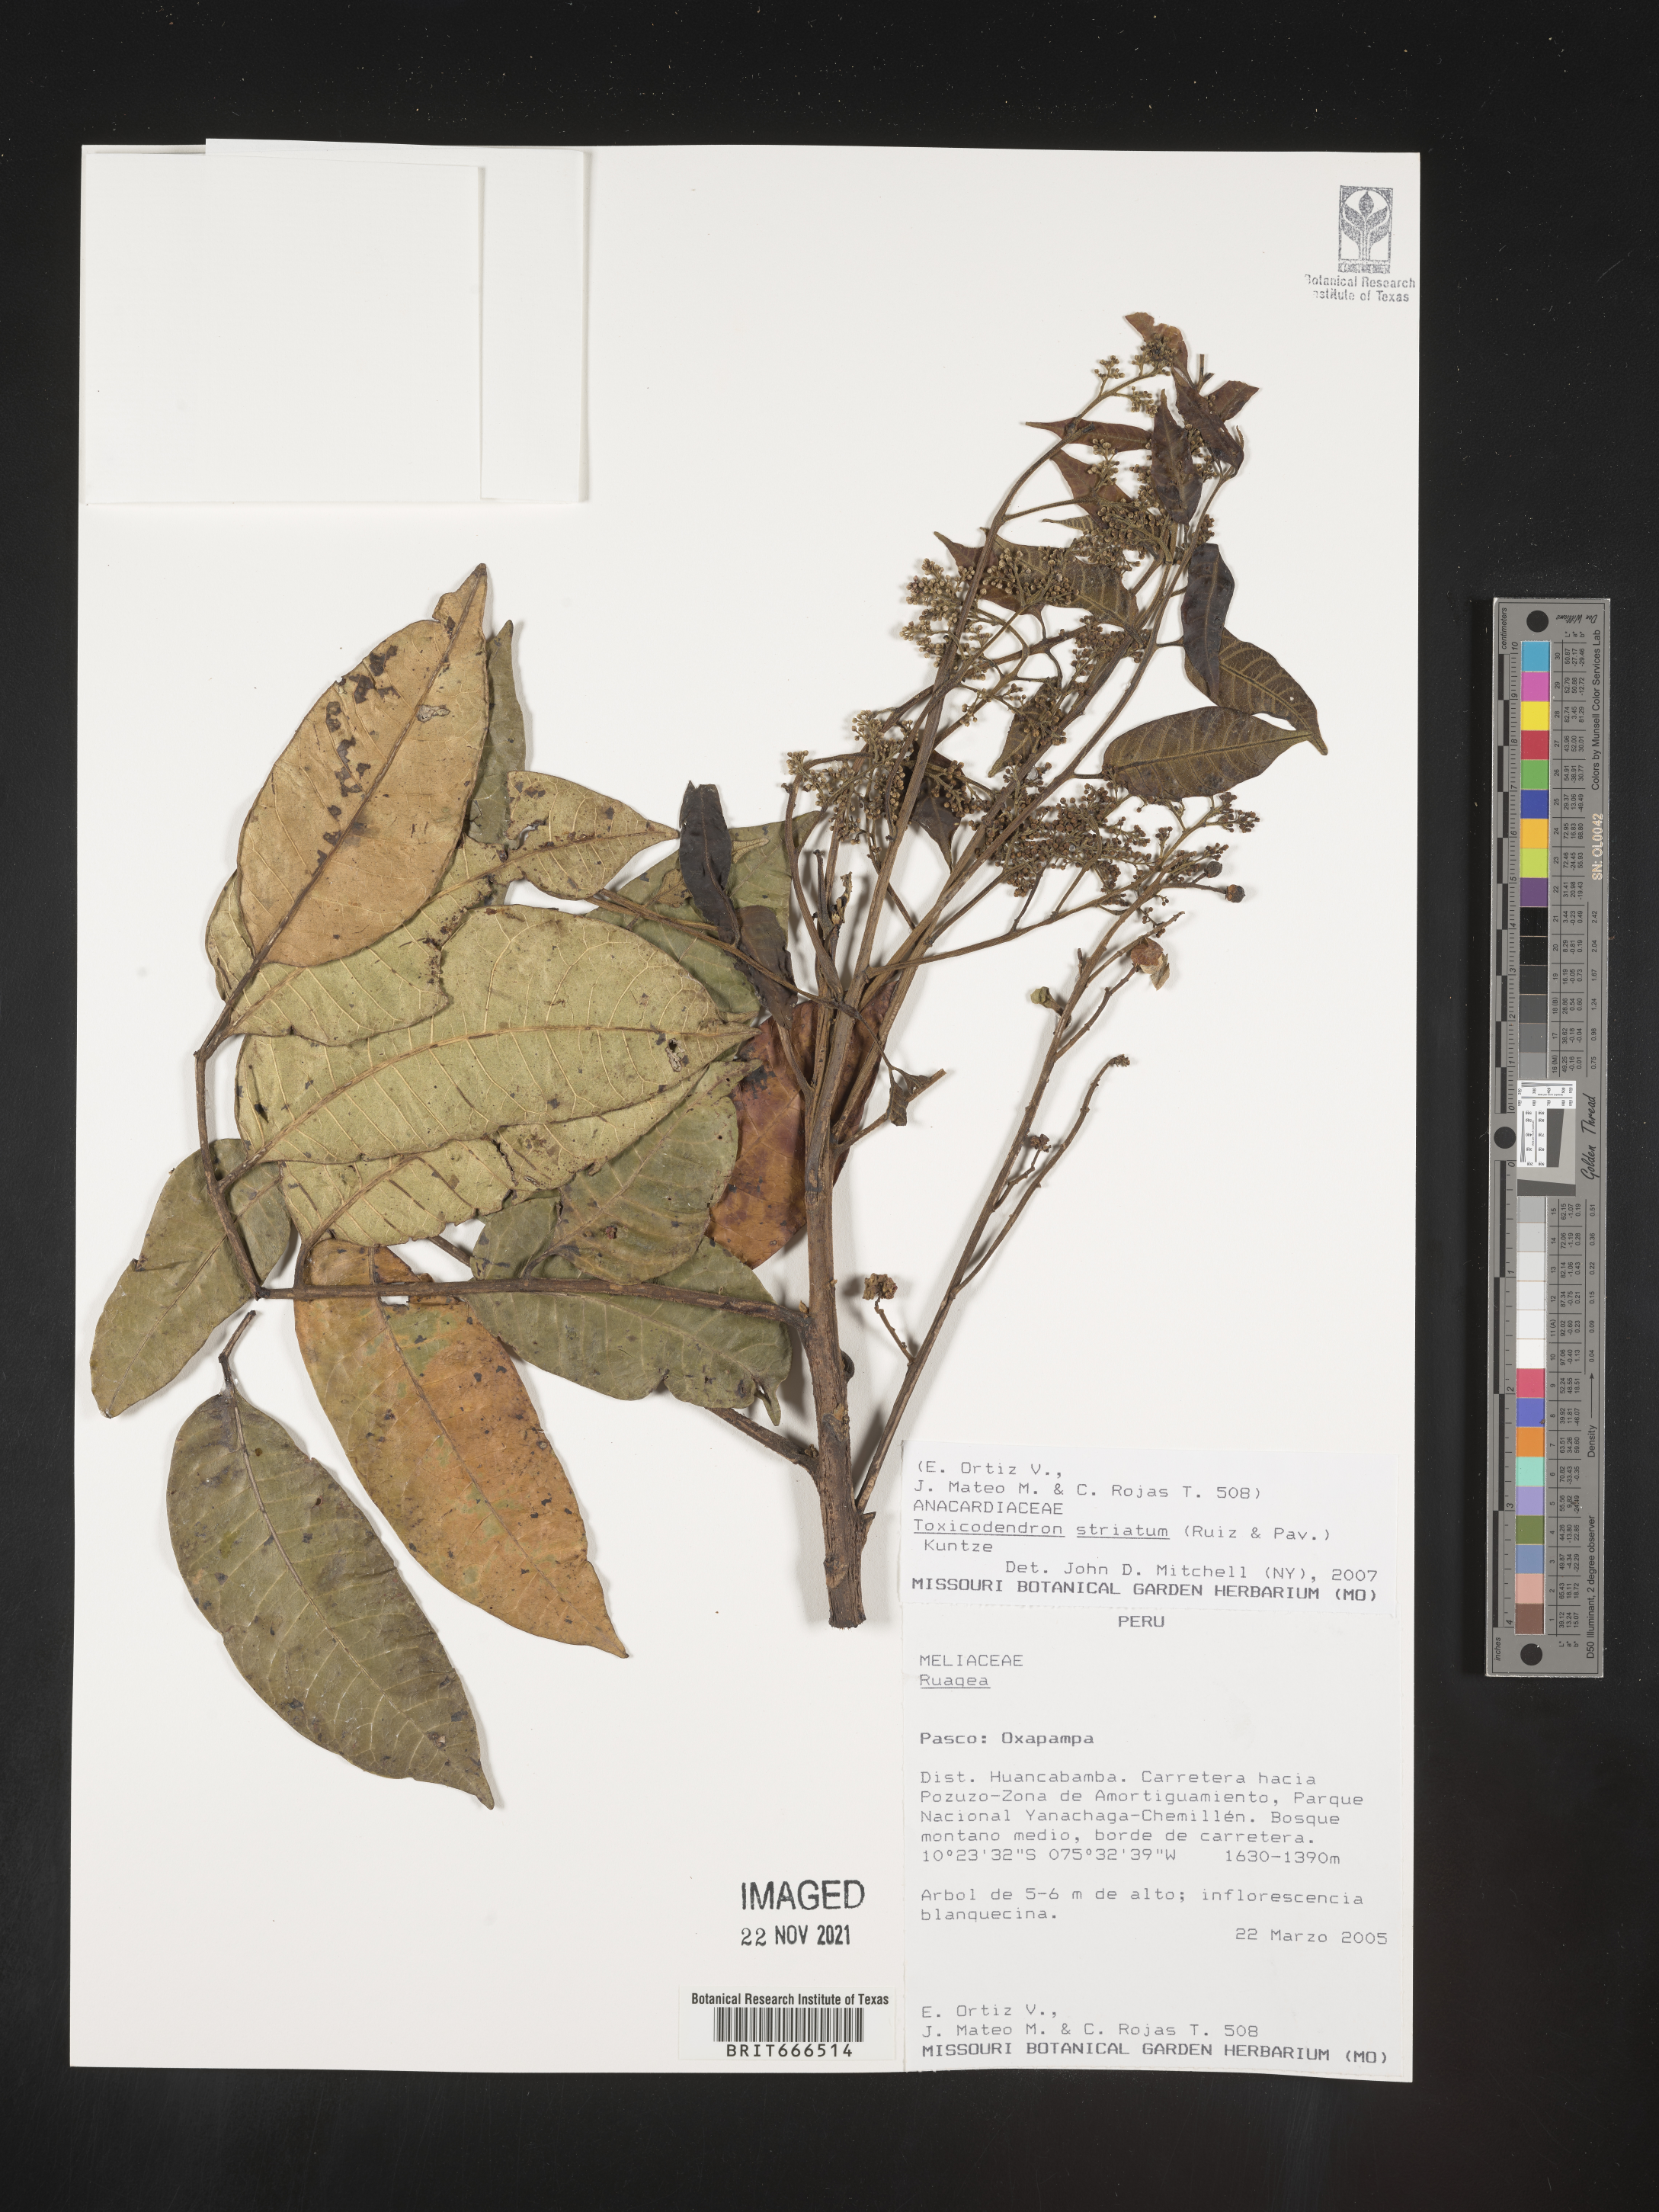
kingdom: Plantae
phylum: Tracheophyta
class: Magnoliopsida
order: Sapindales
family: Anacardiaceae
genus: Toxicodendron
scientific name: Toxicodendron
